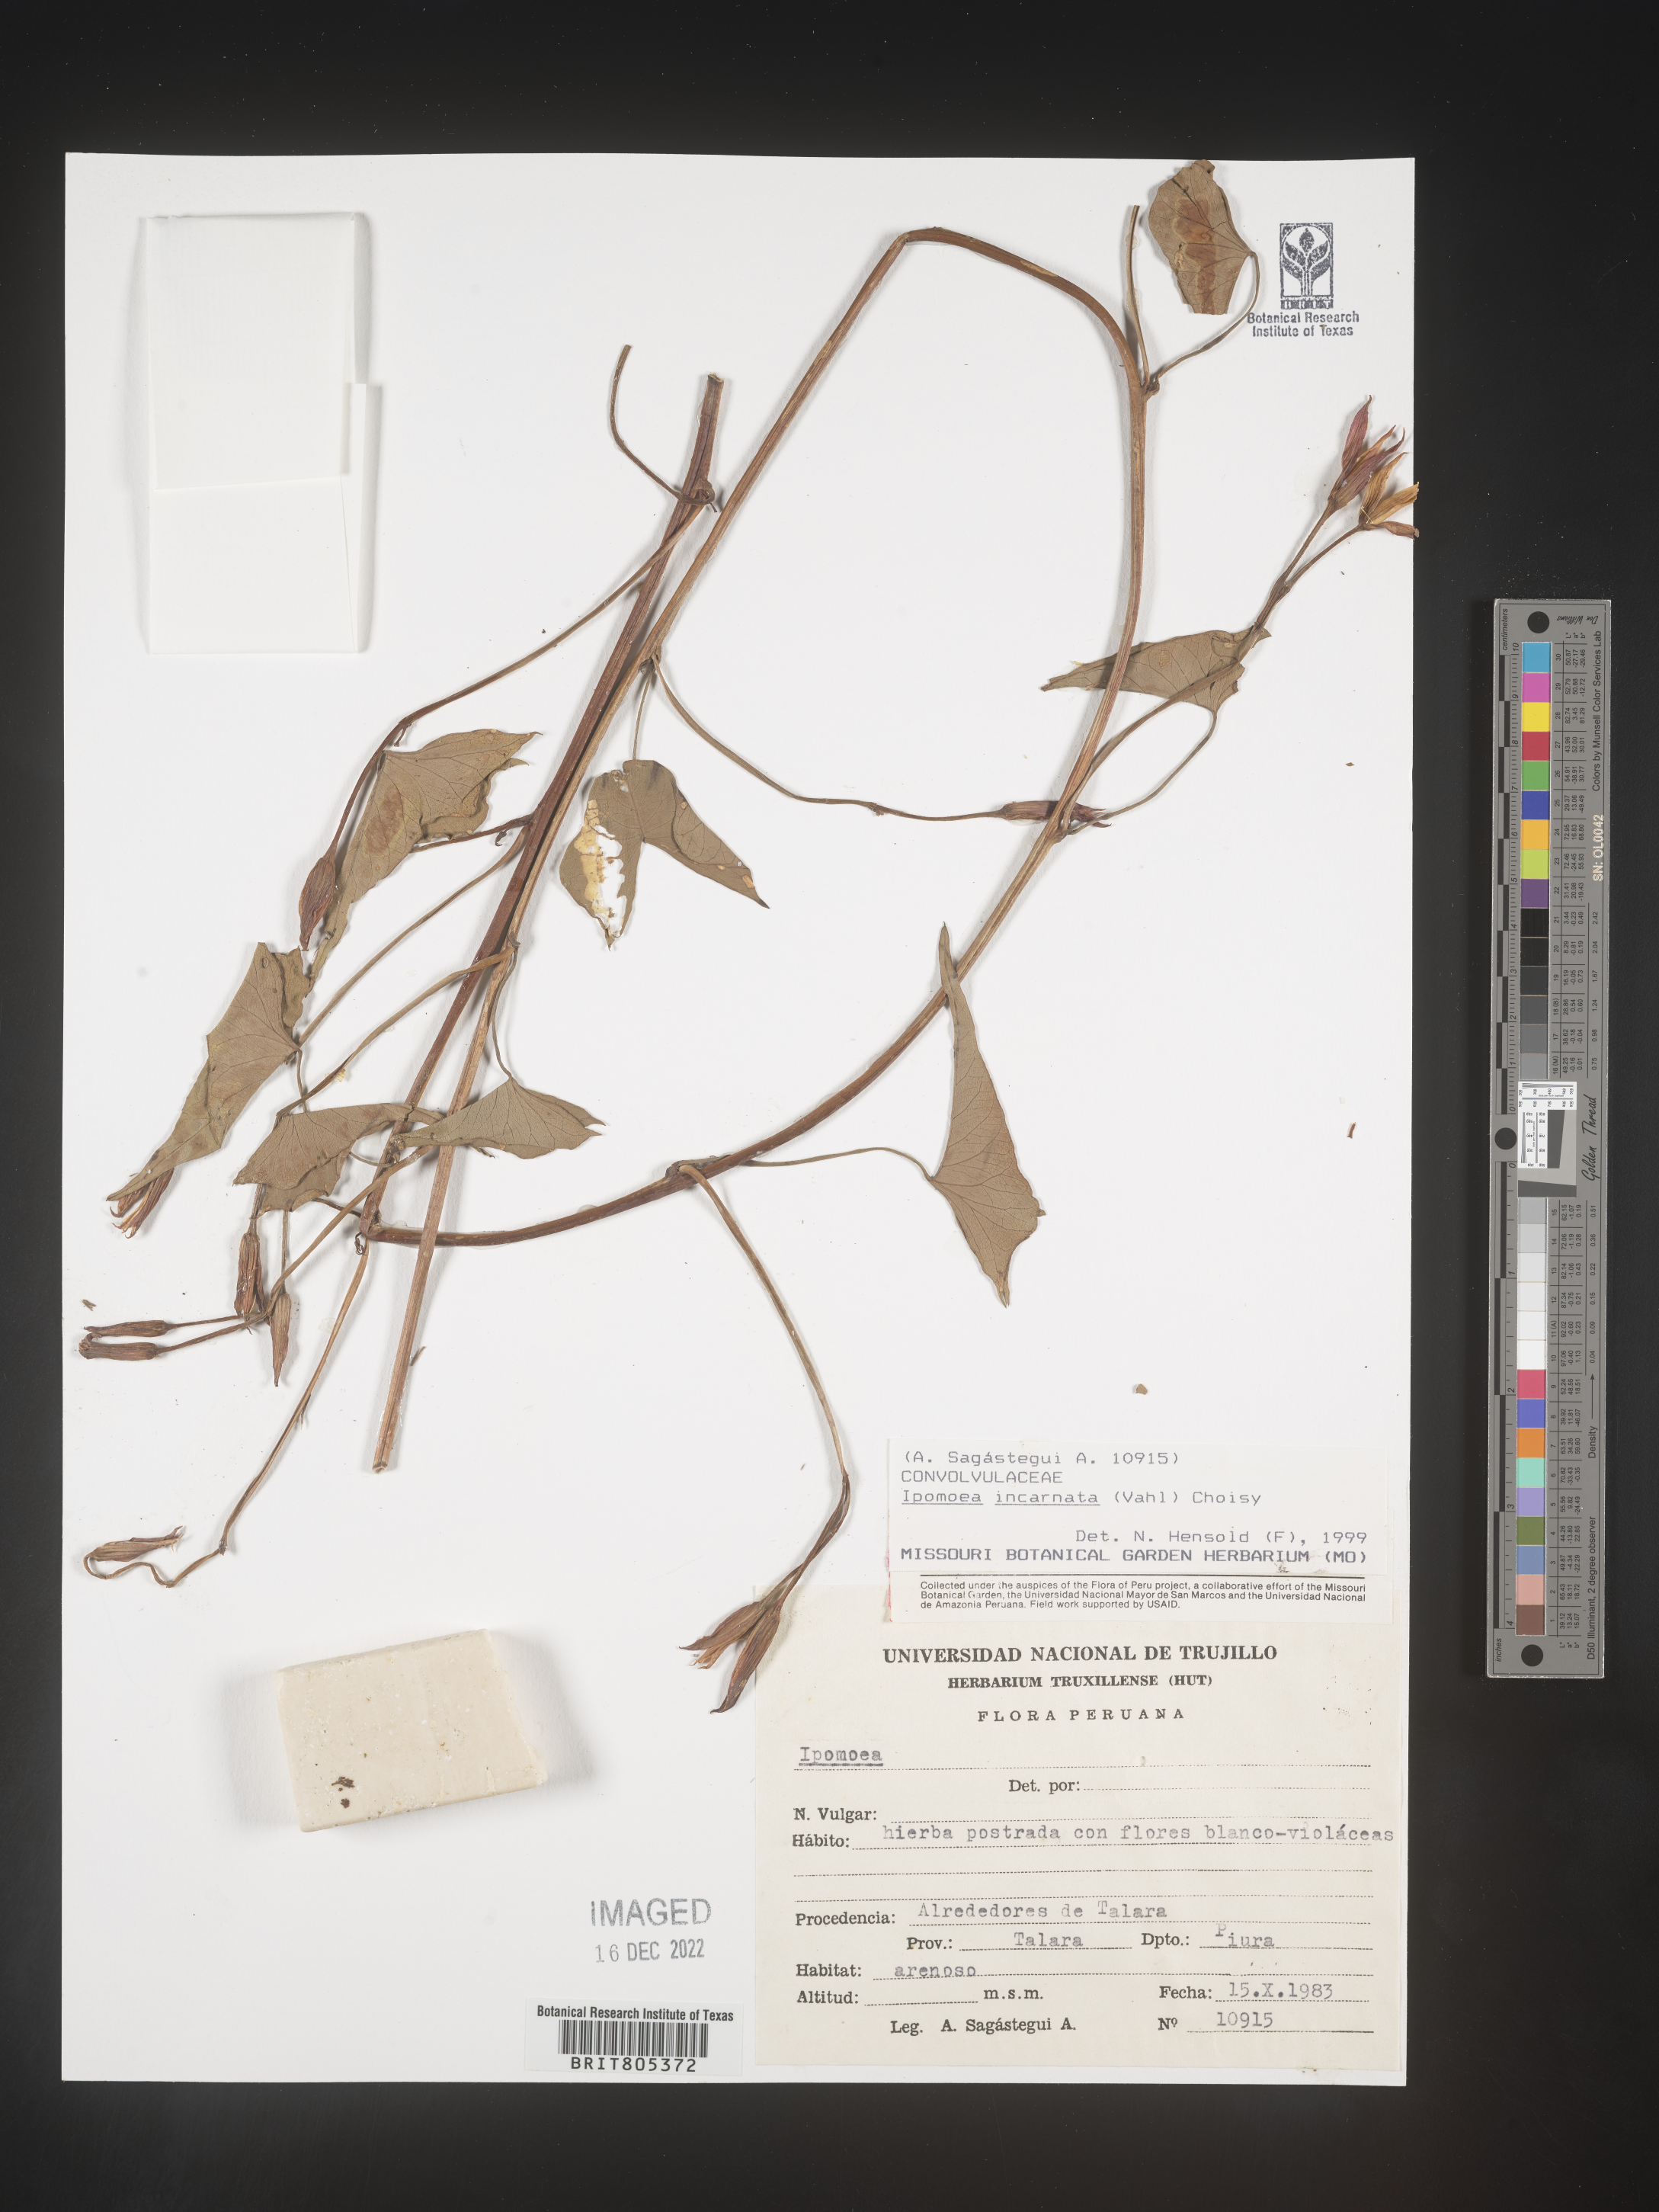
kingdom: Plantae
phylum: Tracheophyta
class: Magnoliopsida
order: Solanales
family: Convolvulaceae
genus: Ipomoea
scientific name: Ipomoea
